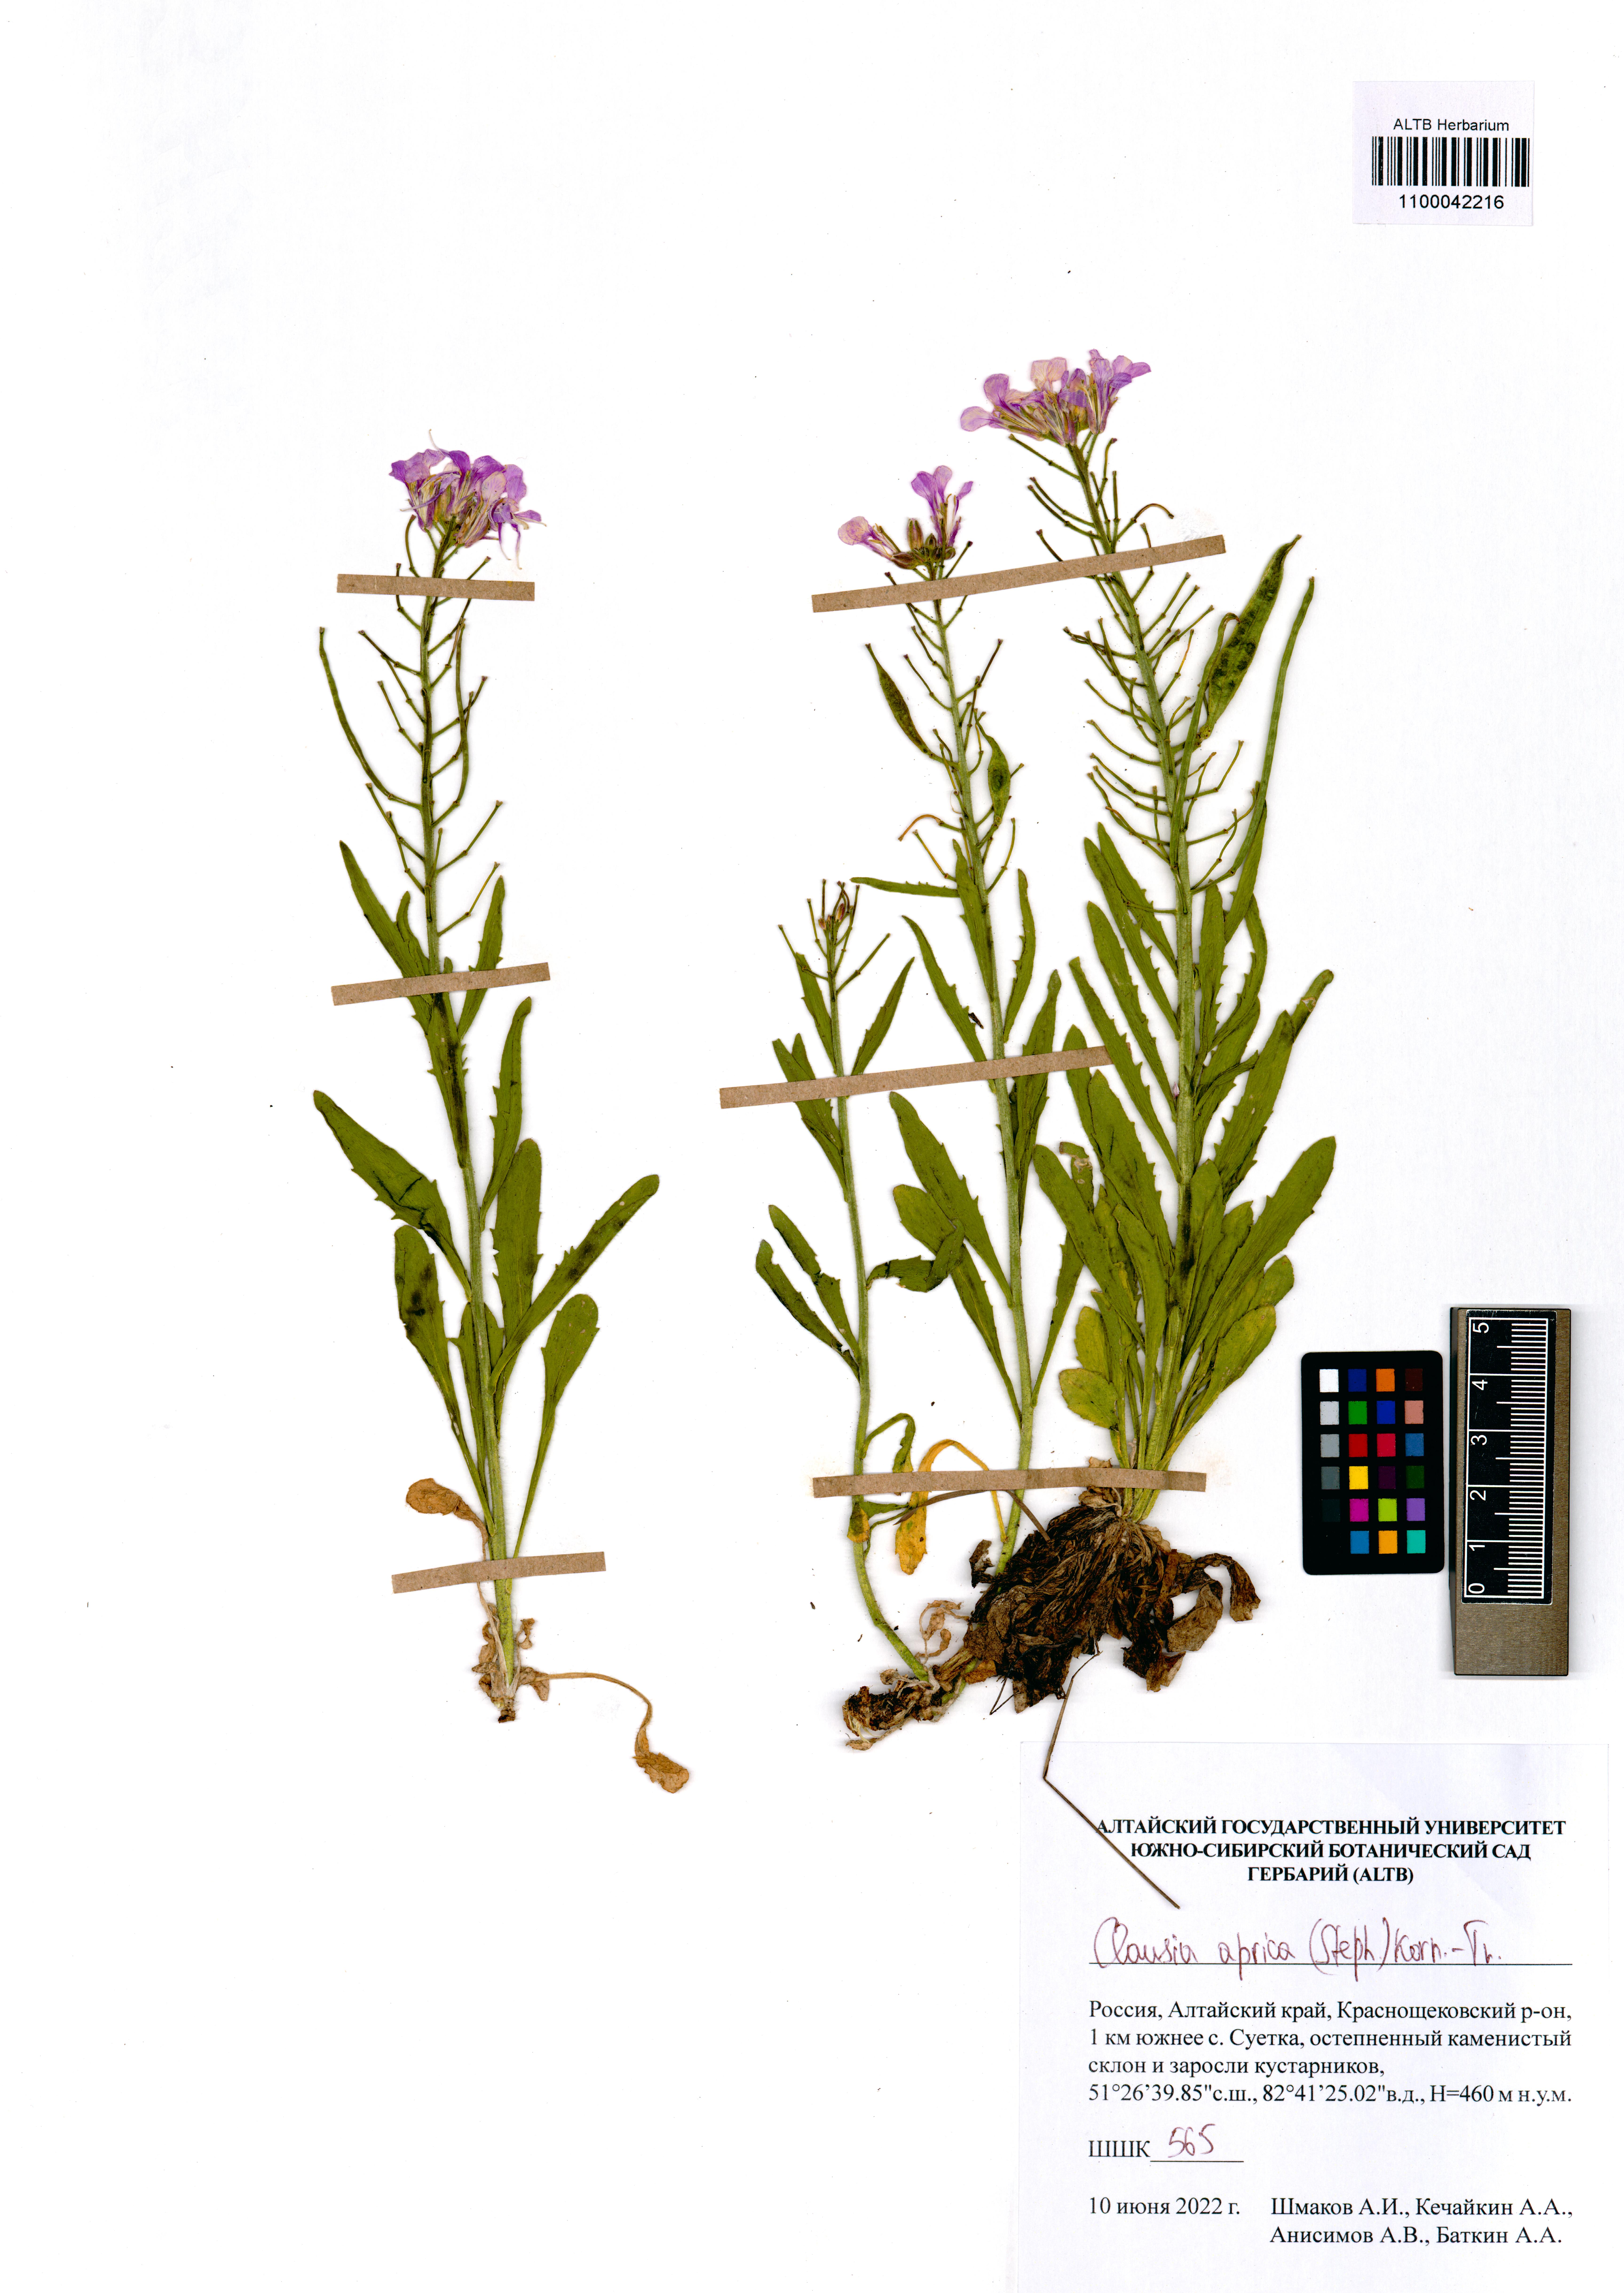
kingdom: Plantae
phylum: Tracheophyta
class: Magnoliopsida
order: Brassicales
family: Brassicaceae
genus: Clausia
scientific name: Clausia aprica
